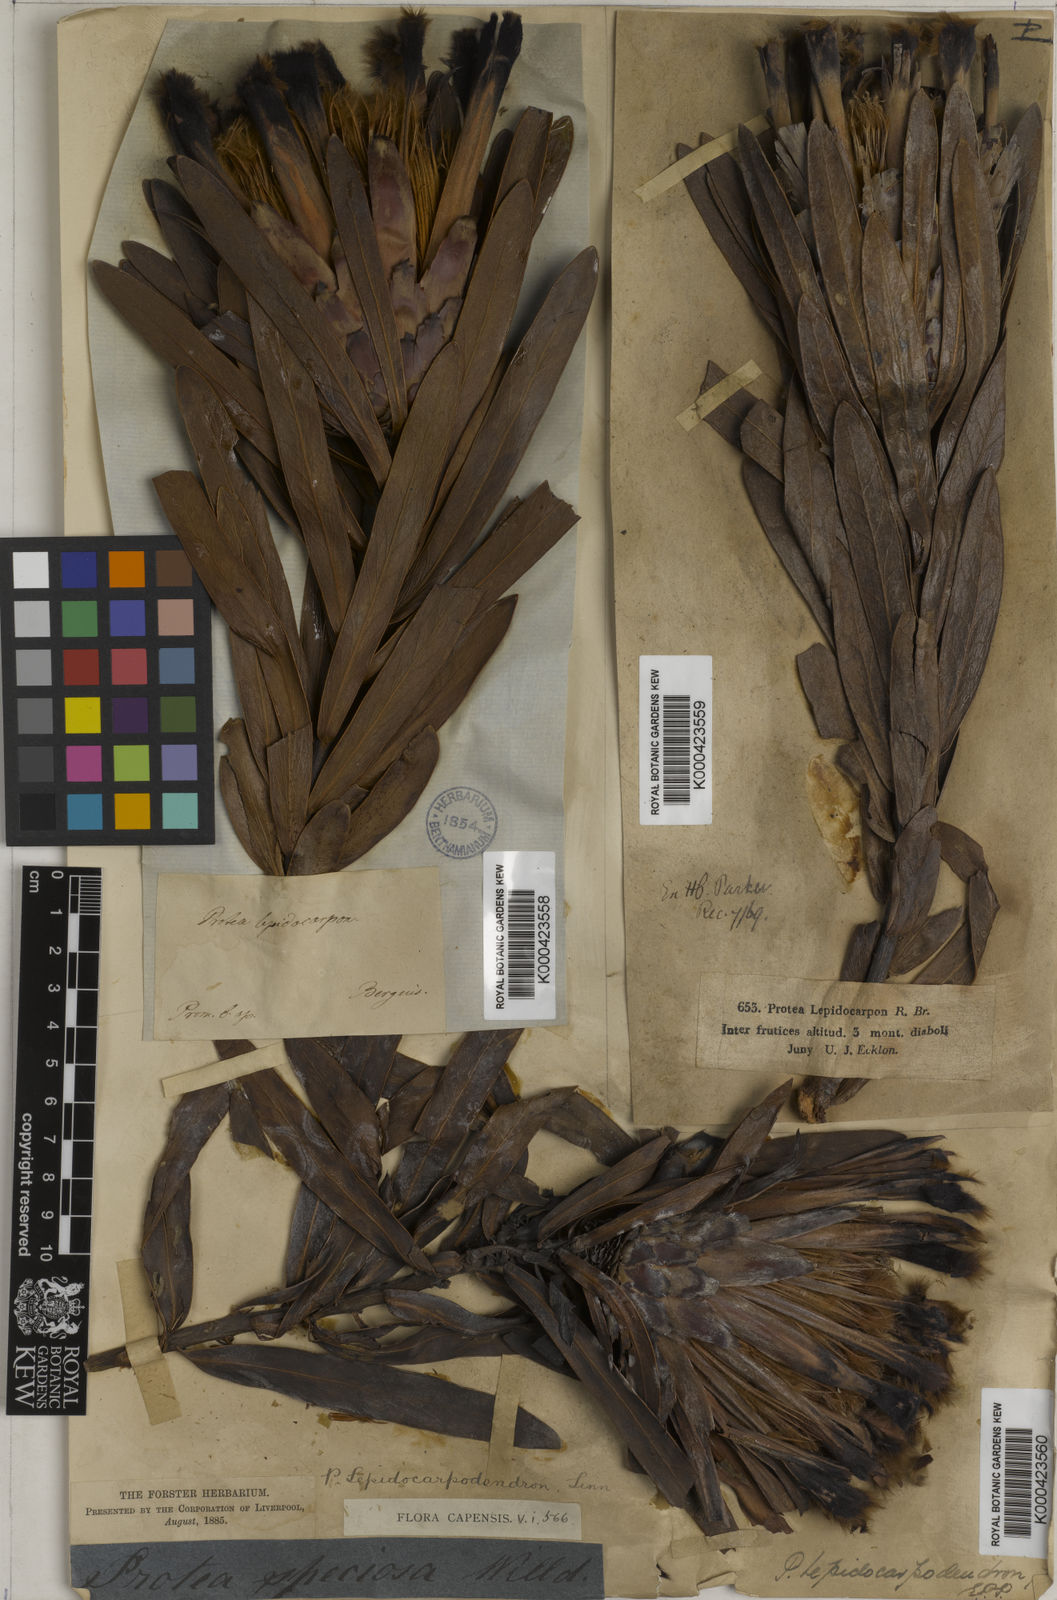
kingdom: Plantae
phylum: Tracheophyta
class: Magnoliopsida
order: Proteales
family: Proteaceae
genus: Protea
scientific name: Protea lepidocarpodendron
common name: Black-bearded protea
